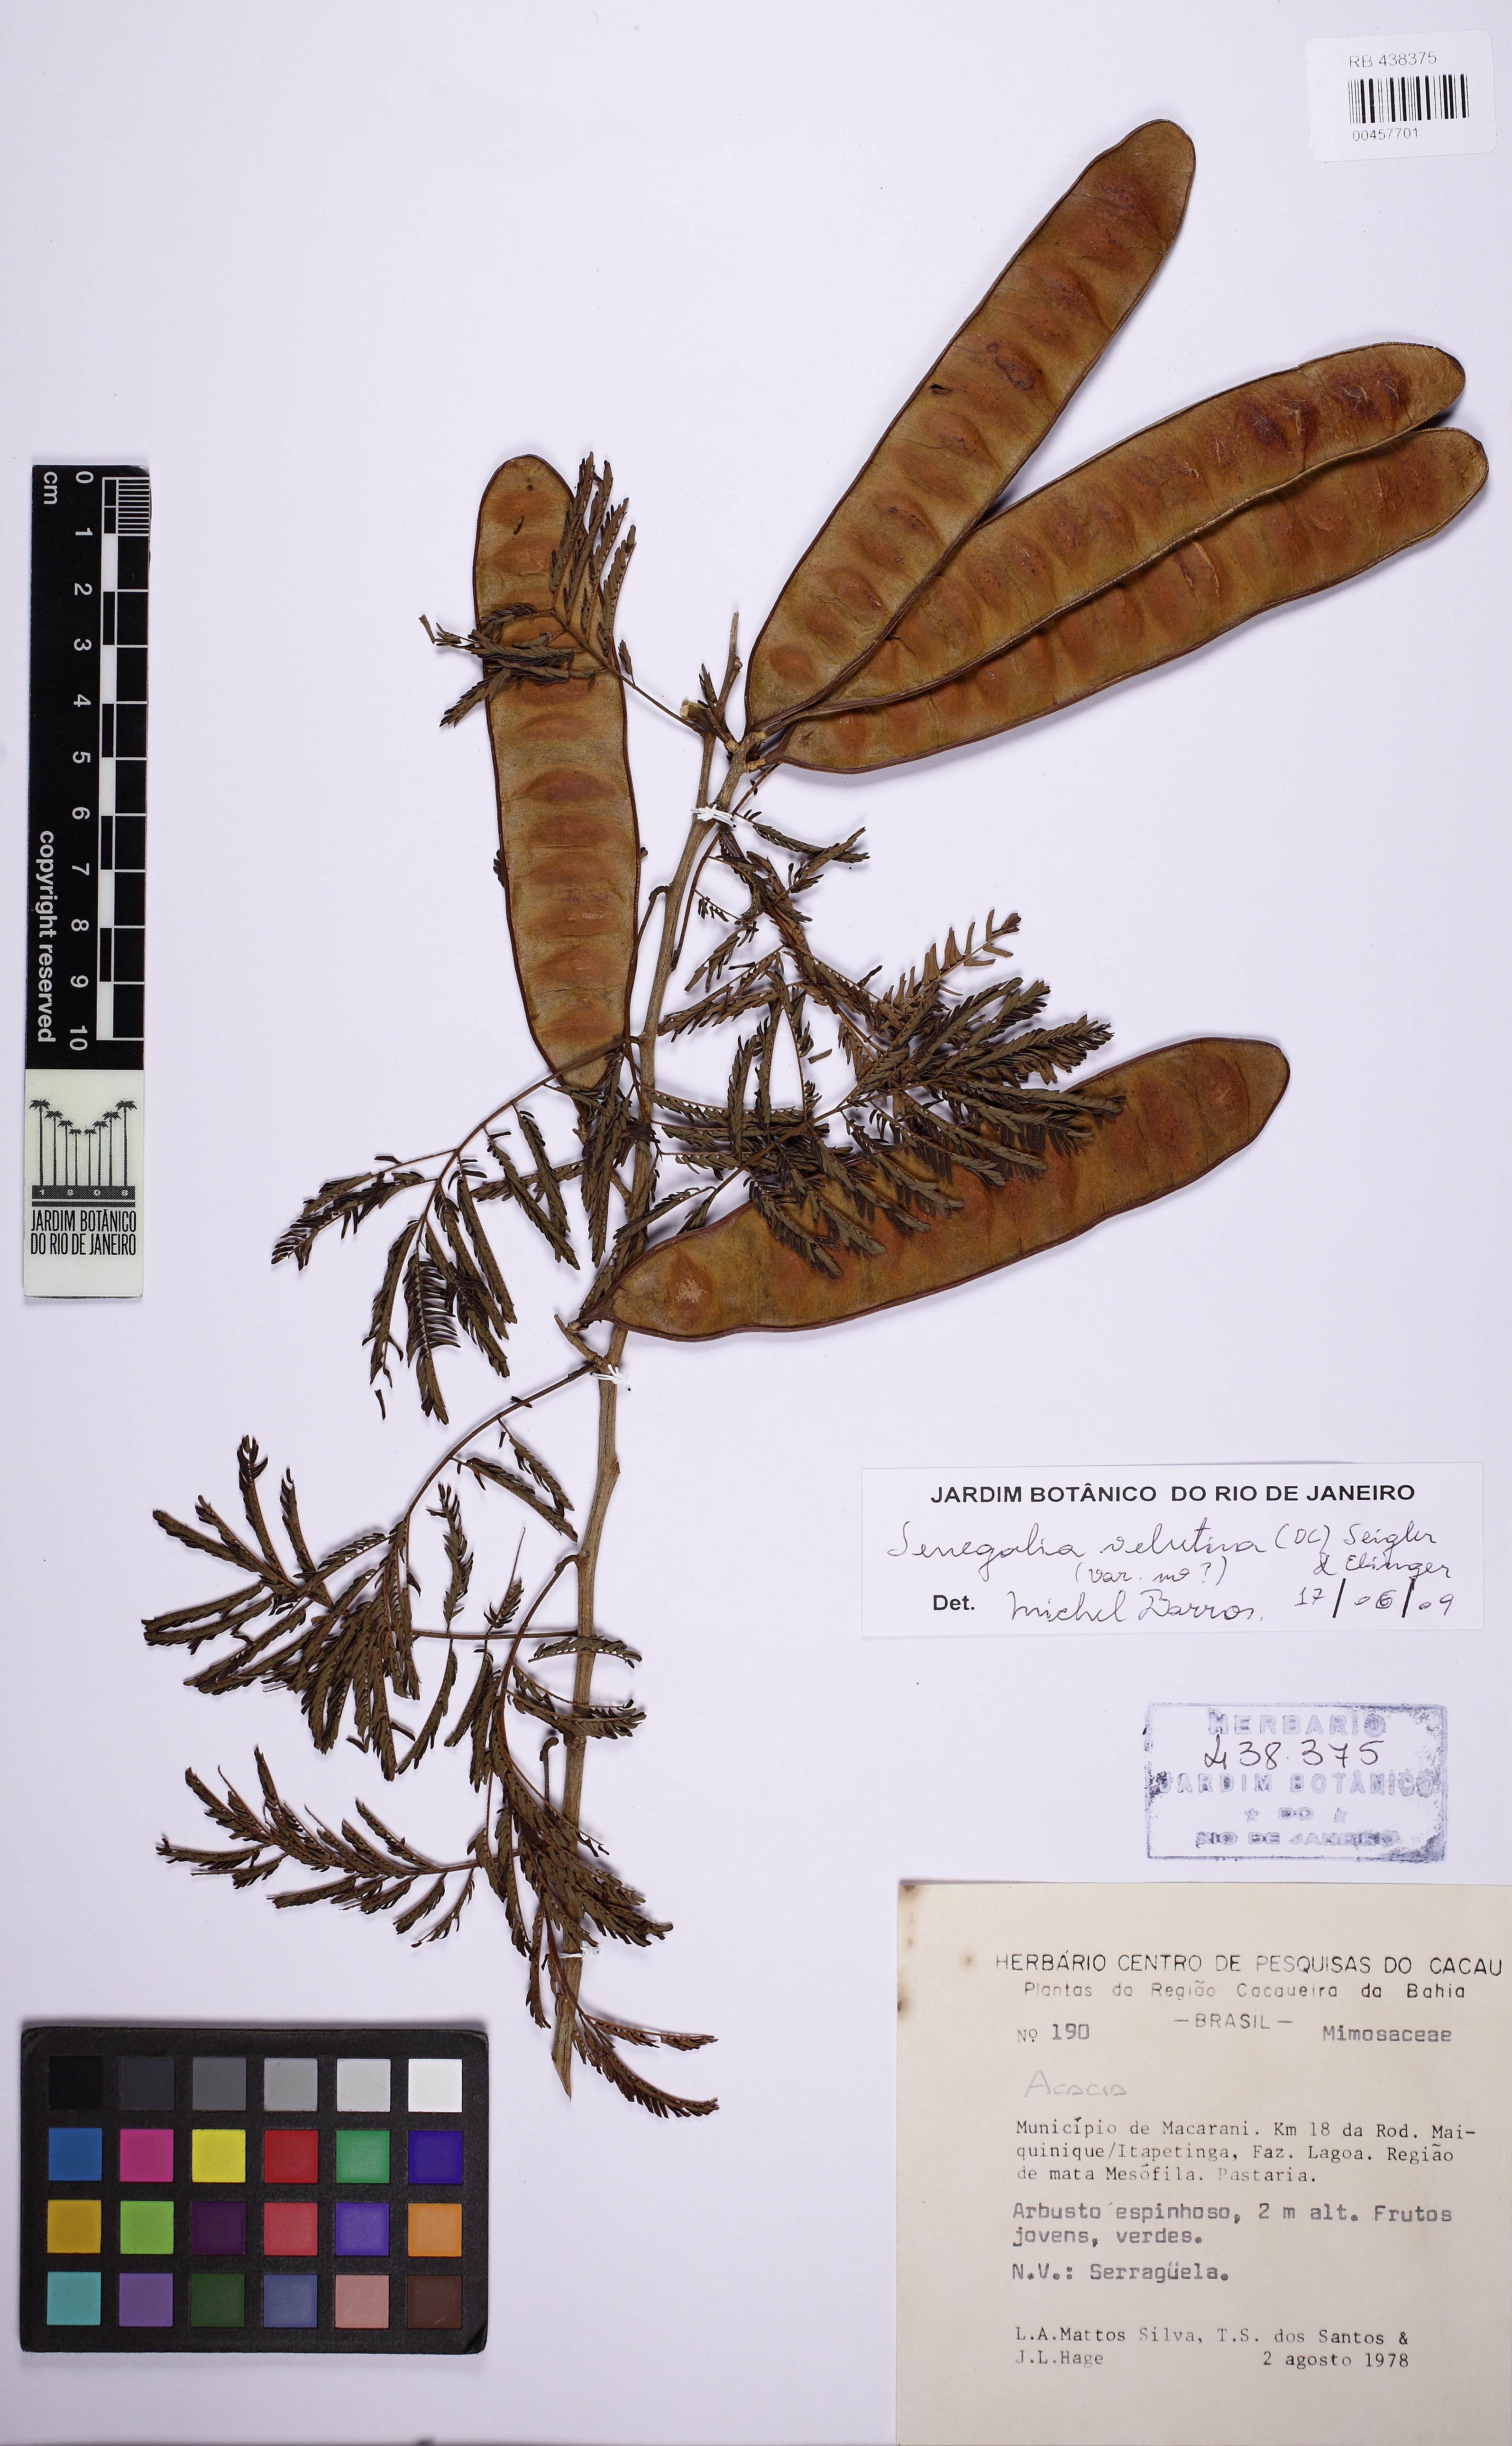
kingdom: Plantae
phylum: Tracheophyta
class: Magnoliopsida
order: Fabales
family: Fabaceae
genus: Senegalia
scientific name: Senegalia velutina
